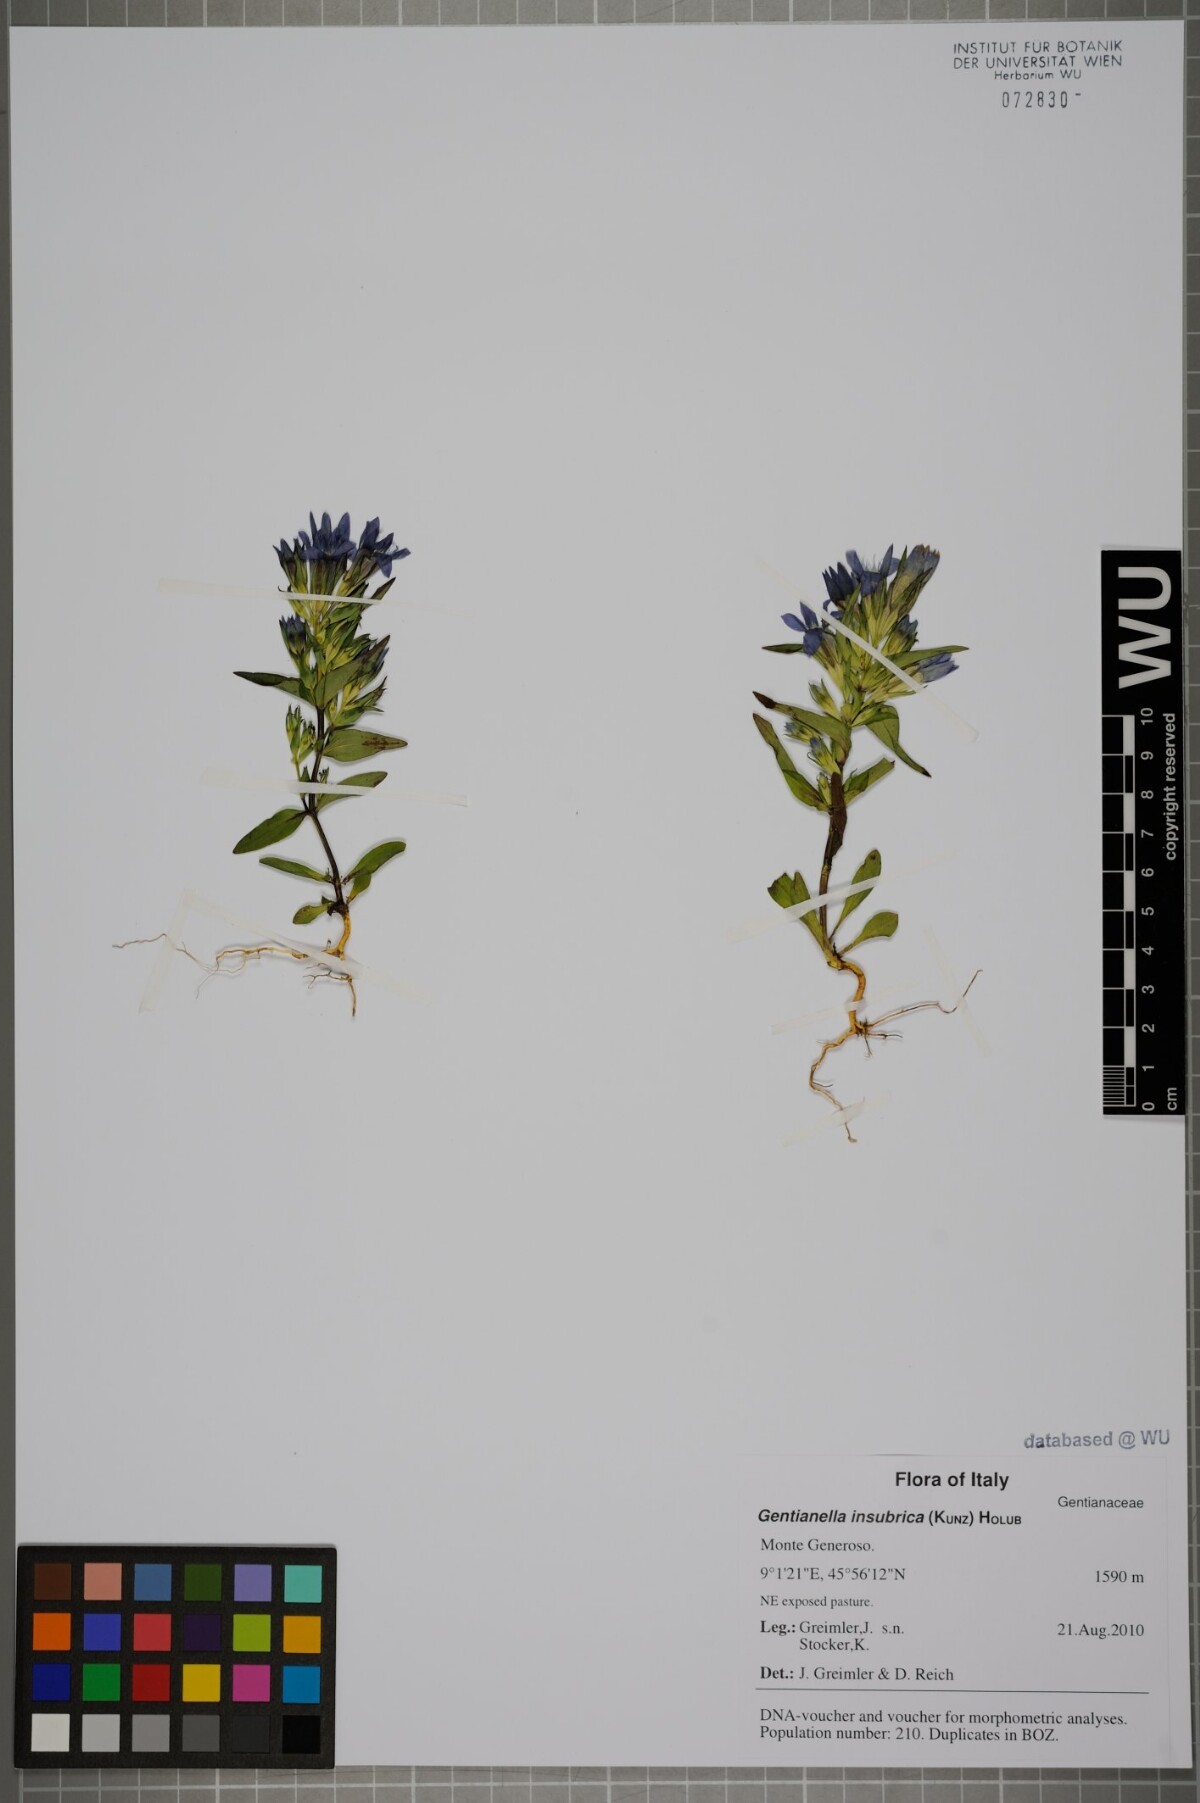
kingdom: Plantae
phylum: Tracheophyta
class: Magnoliopsida
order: Gentianales
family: Gentianaceae
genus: Gentianella
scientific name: Gentianella insubrica
